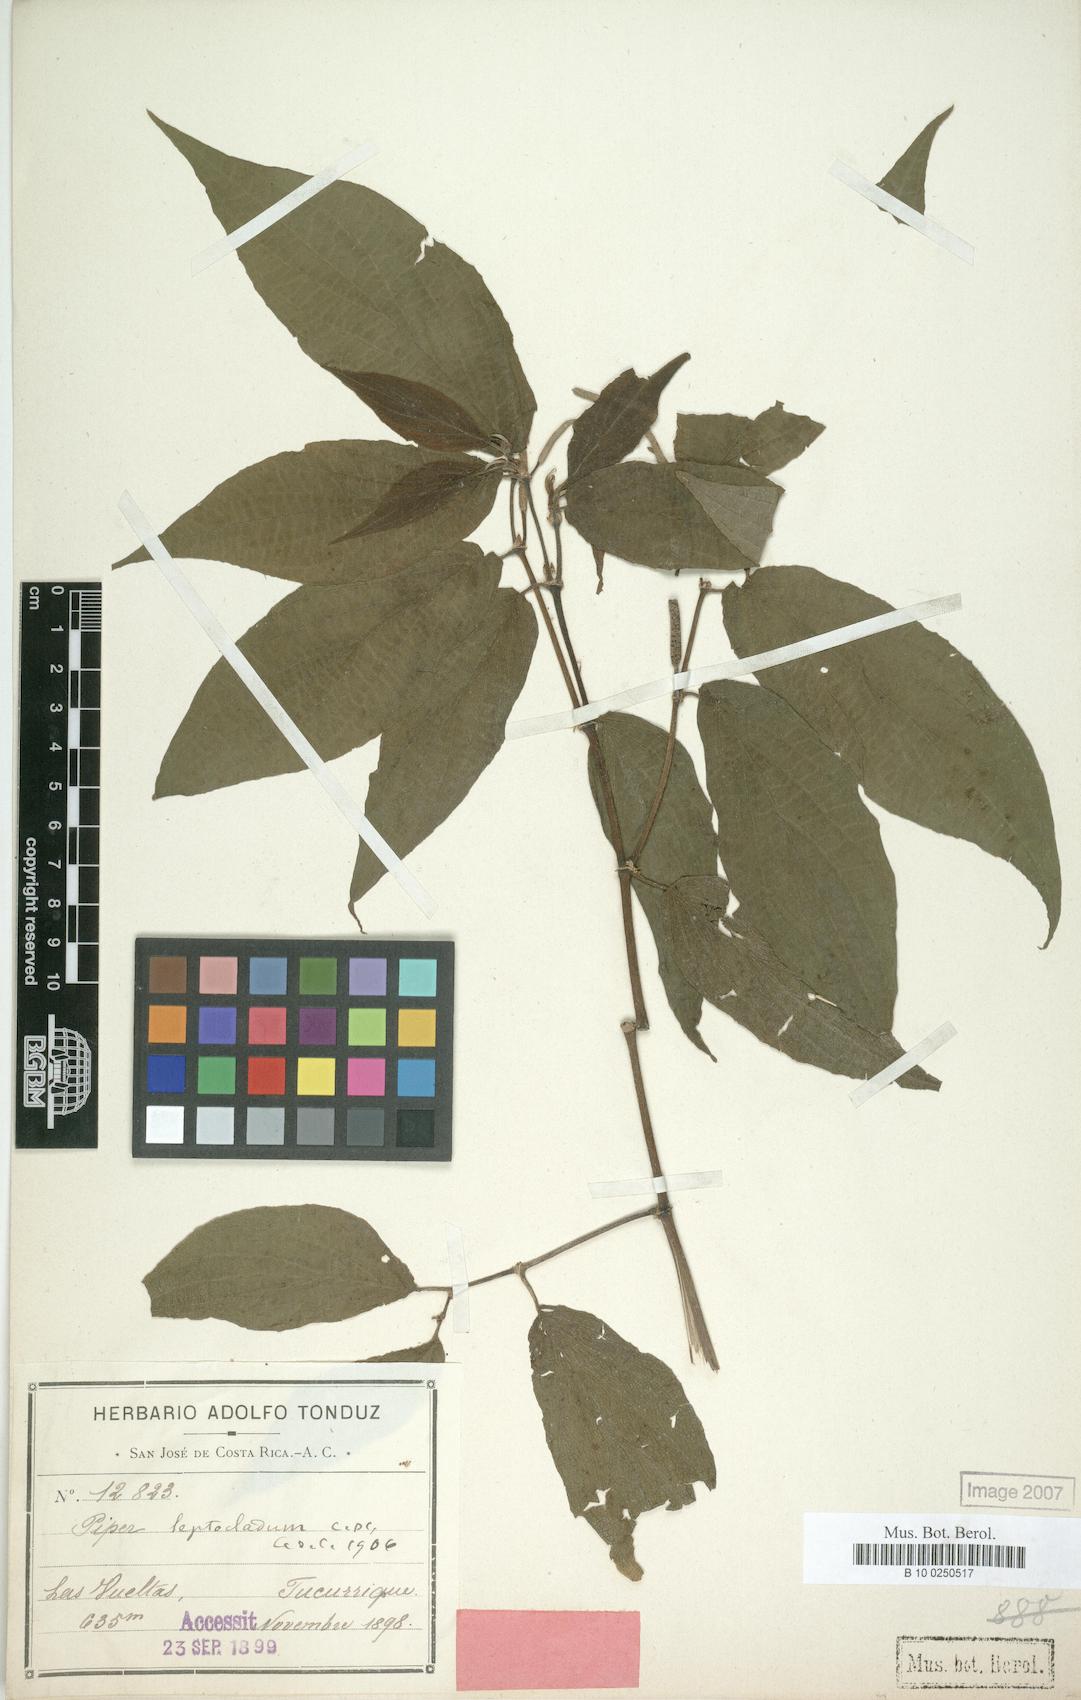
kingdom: Plantae
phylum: Tracheophyta
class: Magnoliopsida
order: Piperales
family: Piperaceae
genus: Piper
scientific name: Piper leptocladum
